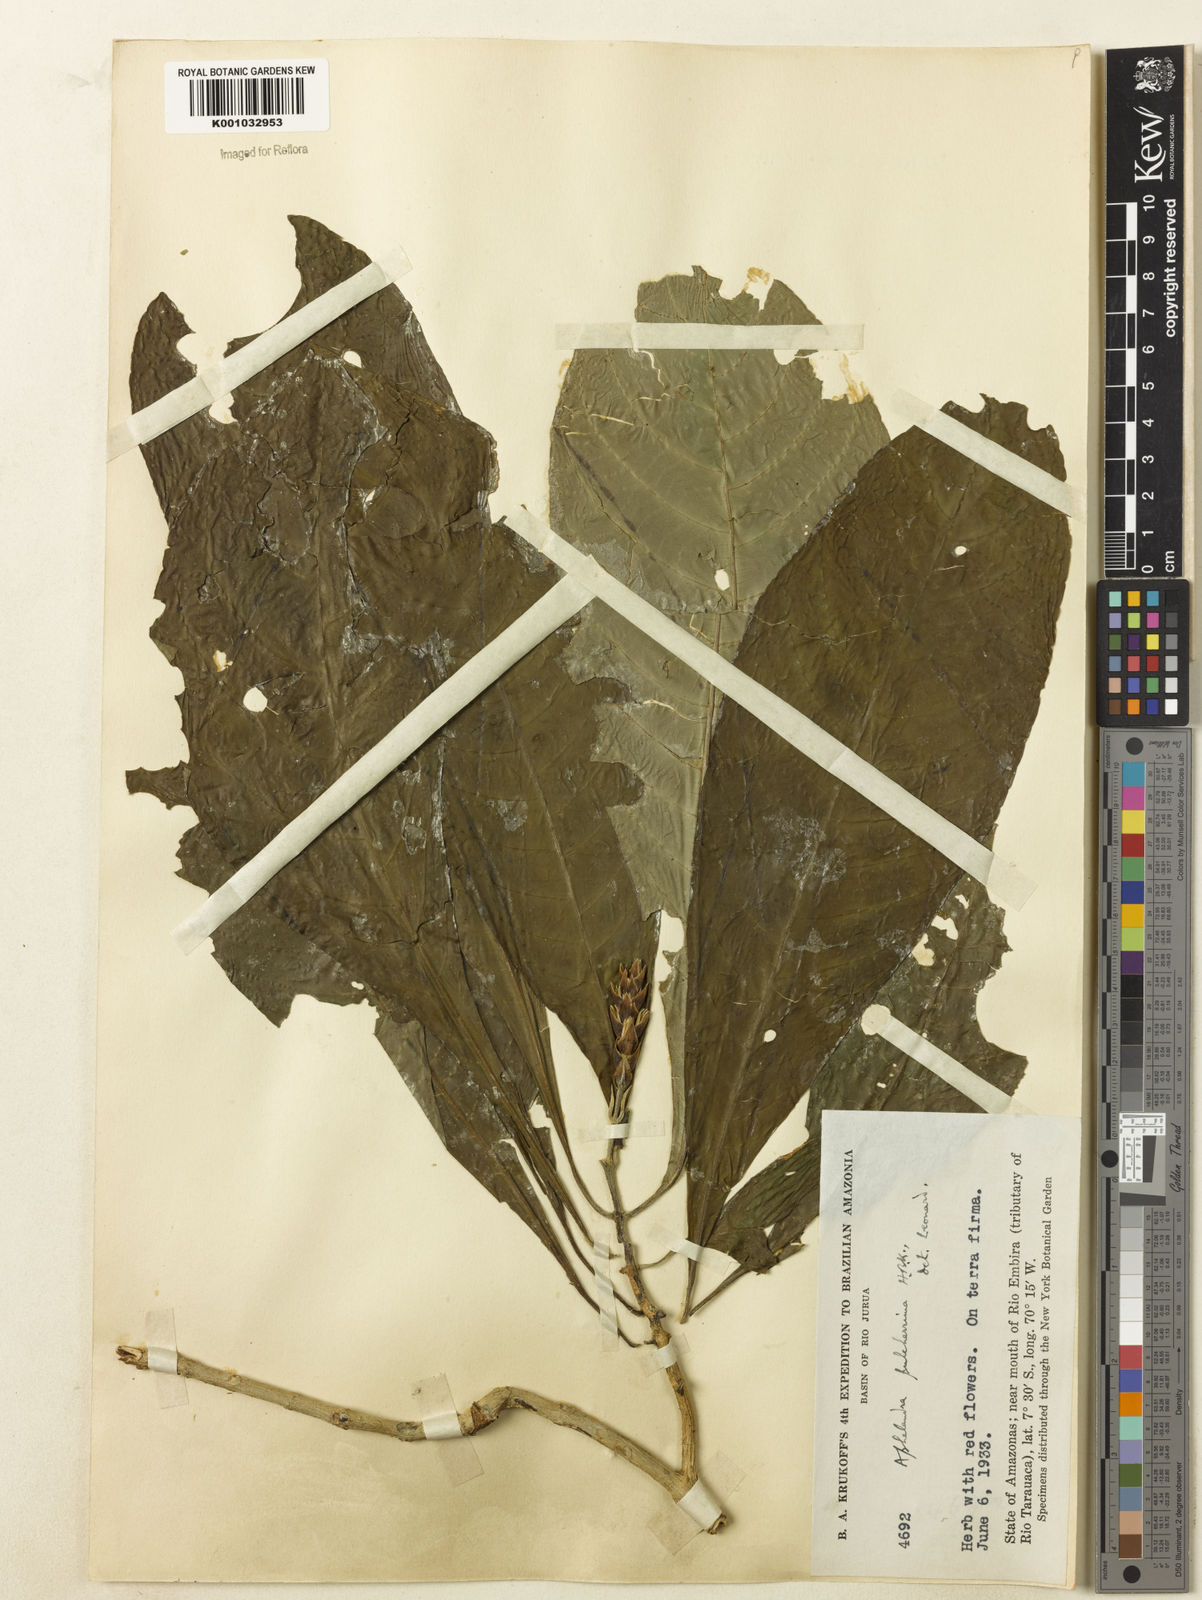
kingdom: Plantae
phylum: Tracheophyta
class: Magnoliopsida
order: Lamiales
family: Acanthaceae
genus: Aphelandra
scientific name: Aphelandra pulcherrima
